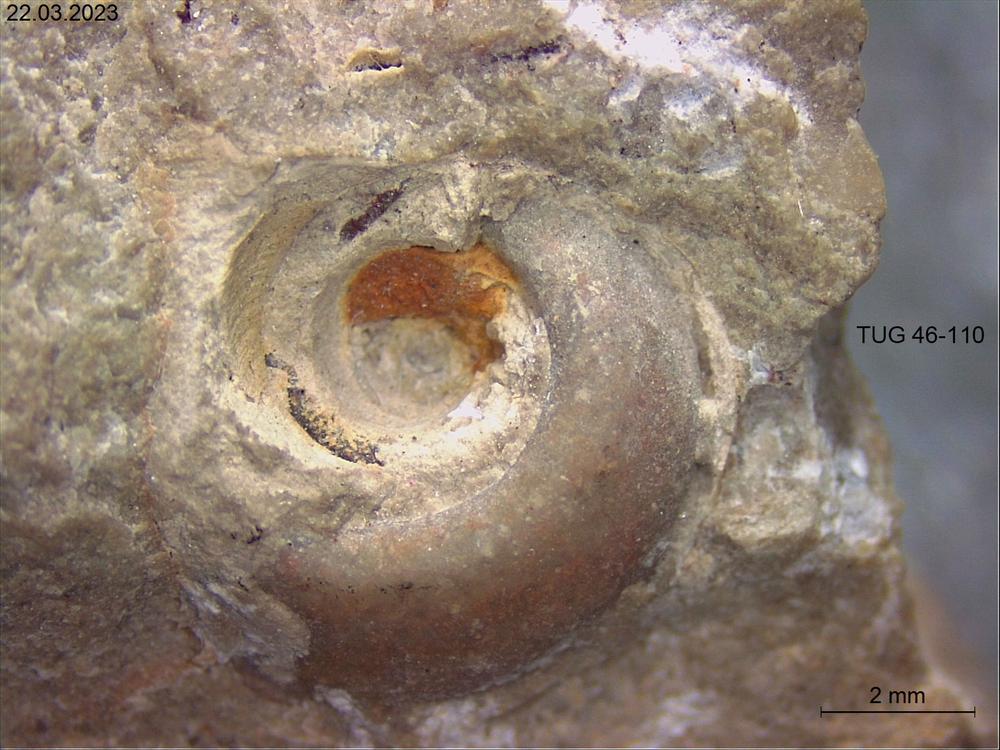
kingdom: Animalia
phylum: Mollusca
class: Gastropoda
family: Bucaniidae
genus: Megalomphala
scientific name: Megalomphala
